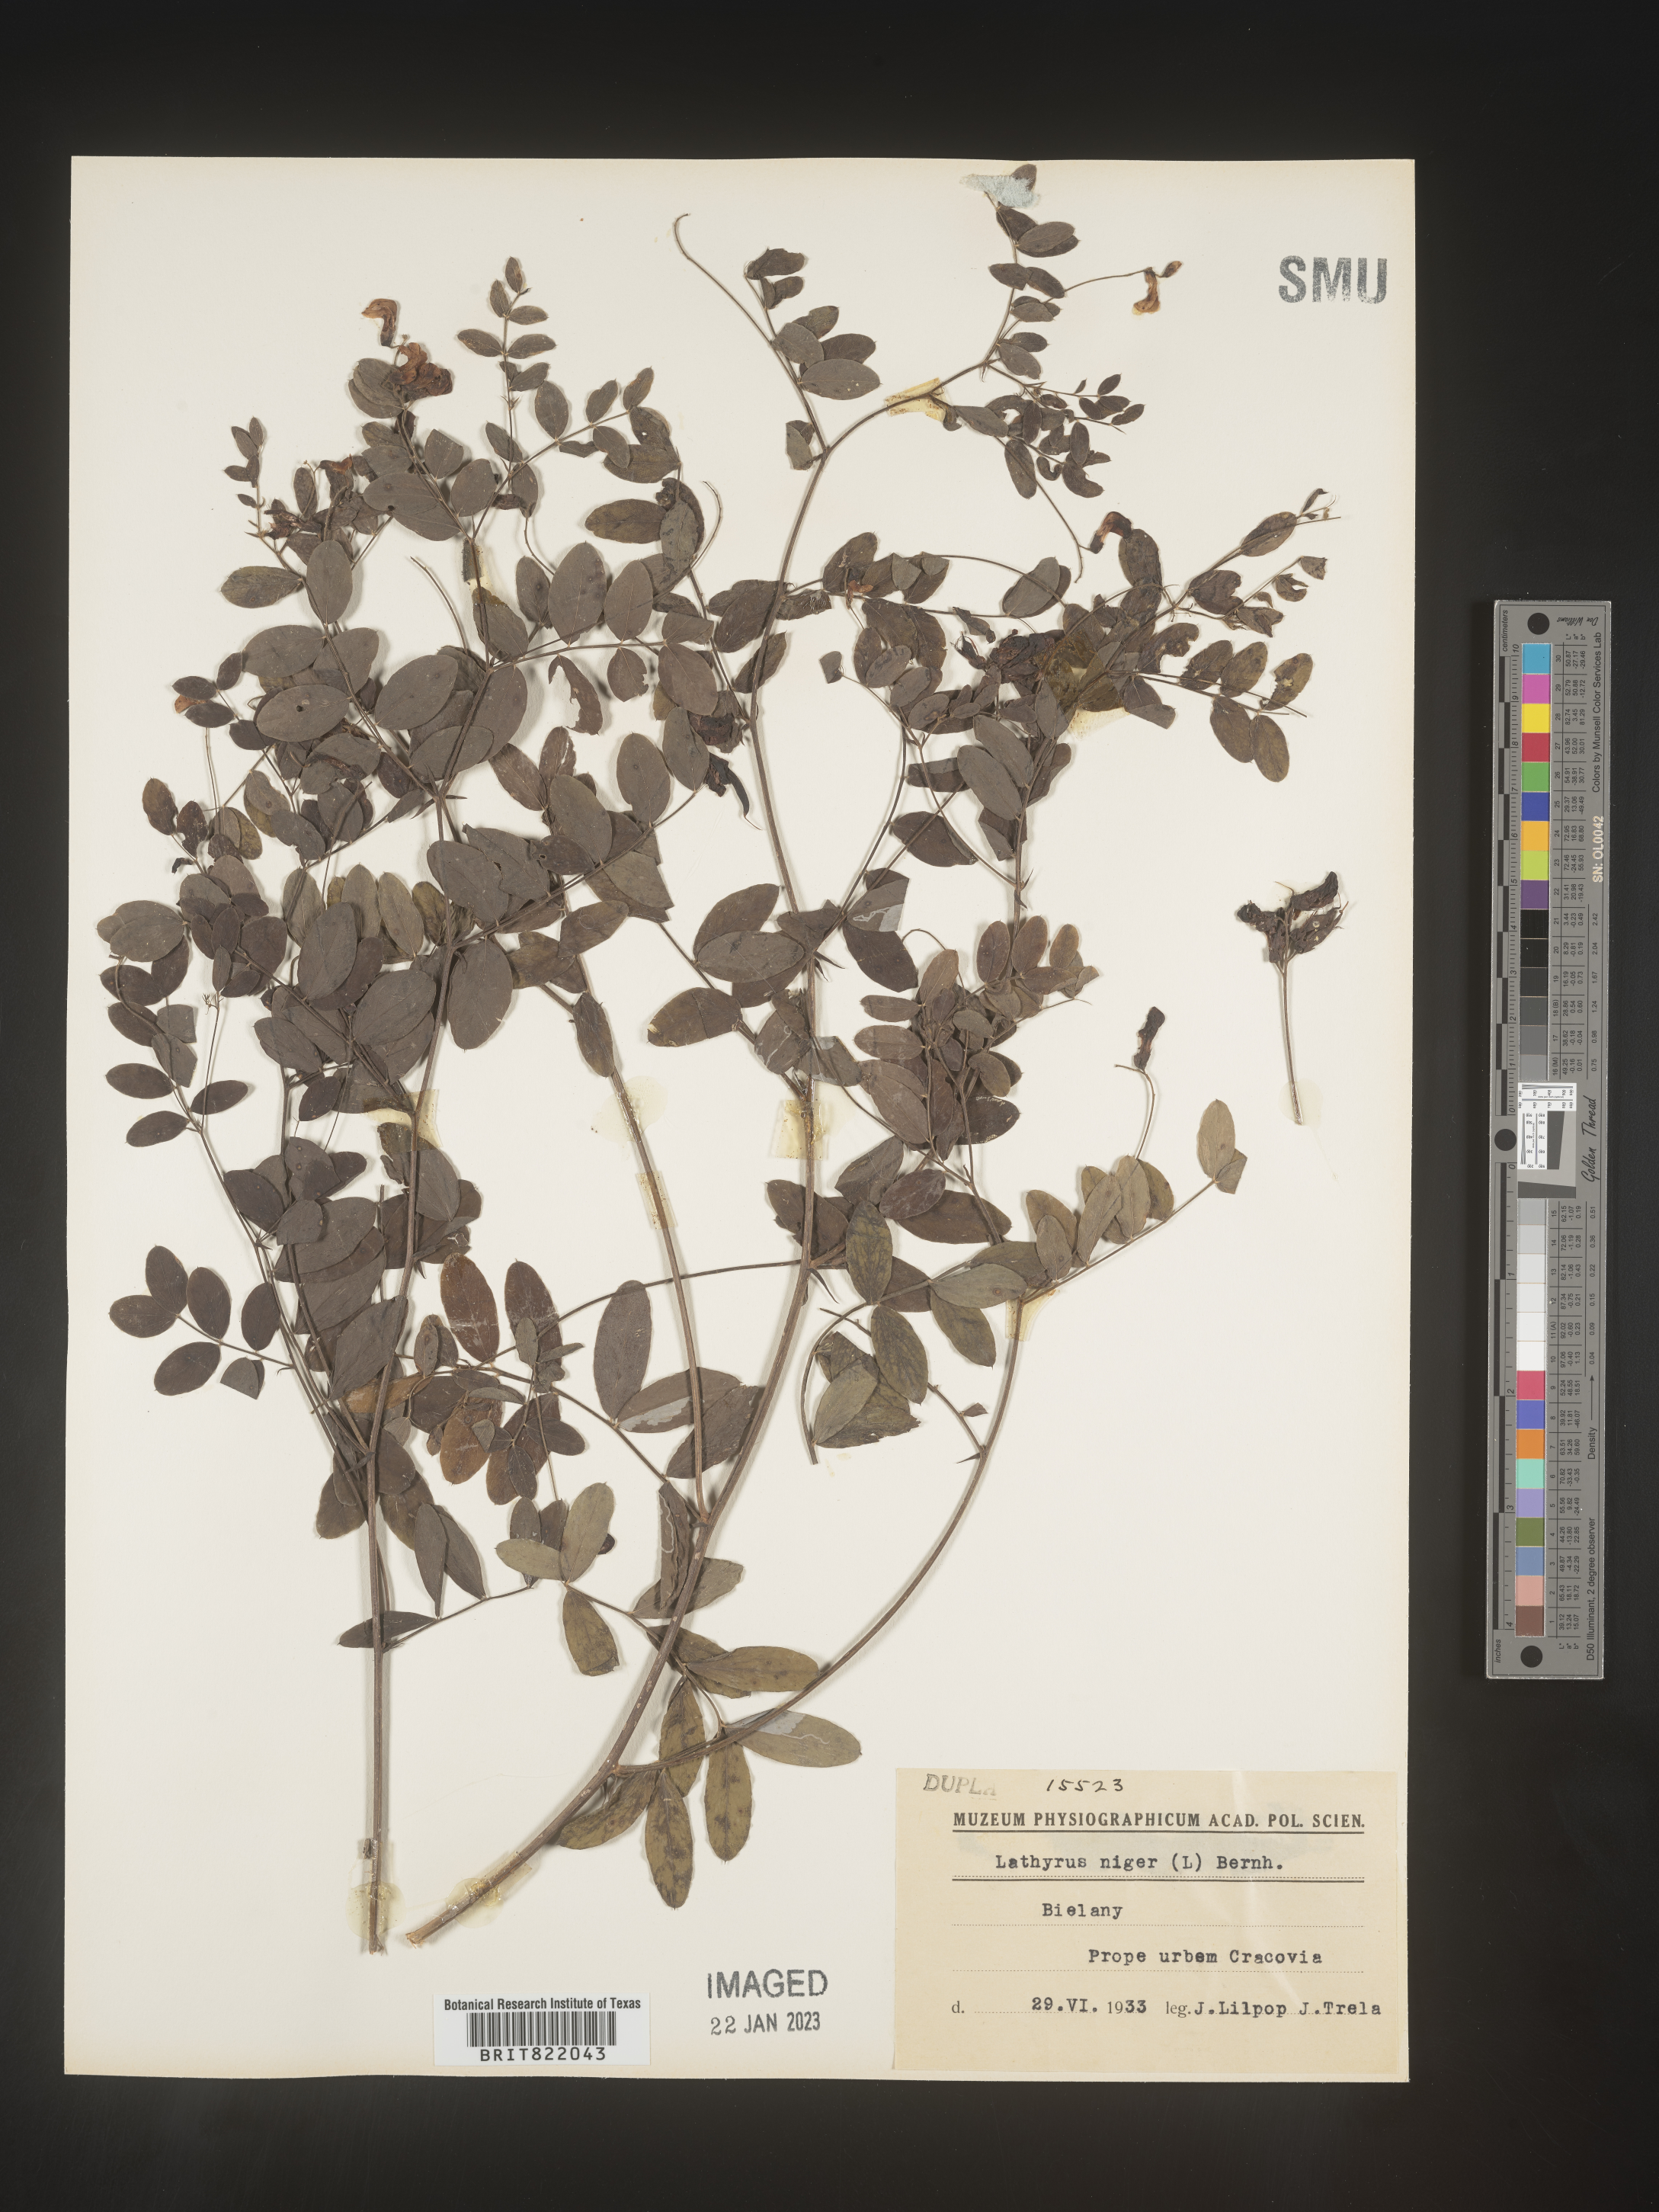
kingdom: Plantae
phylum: Tracheophyta
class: Magnoliopsida
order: Fabales
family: Fabaceae
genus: Lathyrus
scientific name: Lathyrus
